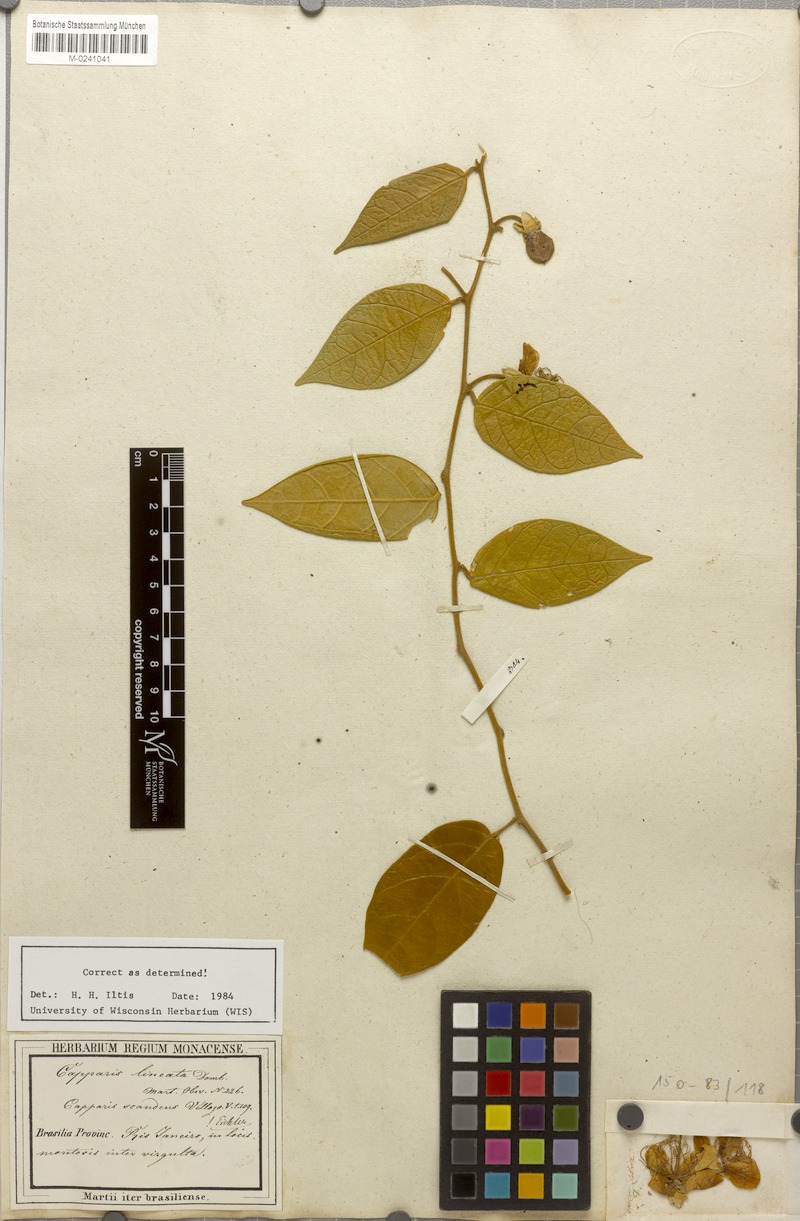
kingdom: Plantae
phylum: Tracheophyta
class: Magnoliopsida
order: Brassicales
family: Capparaceae
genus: Mesocapparis
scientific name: Mesocapparis lineata
